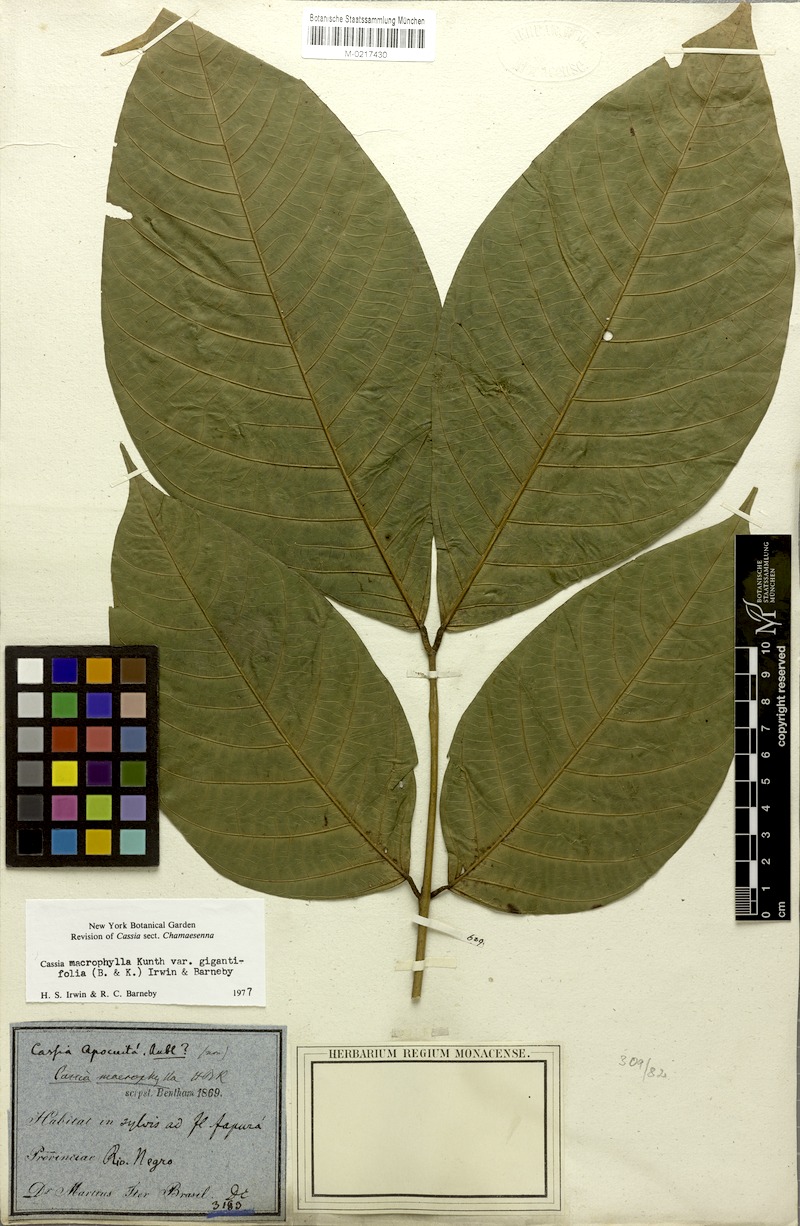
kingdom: Plantae
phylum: Tracheophyta
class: Magnoliopsida
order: Fabales
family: Fabaceae
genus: Senna
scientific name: Senna macrophylla
